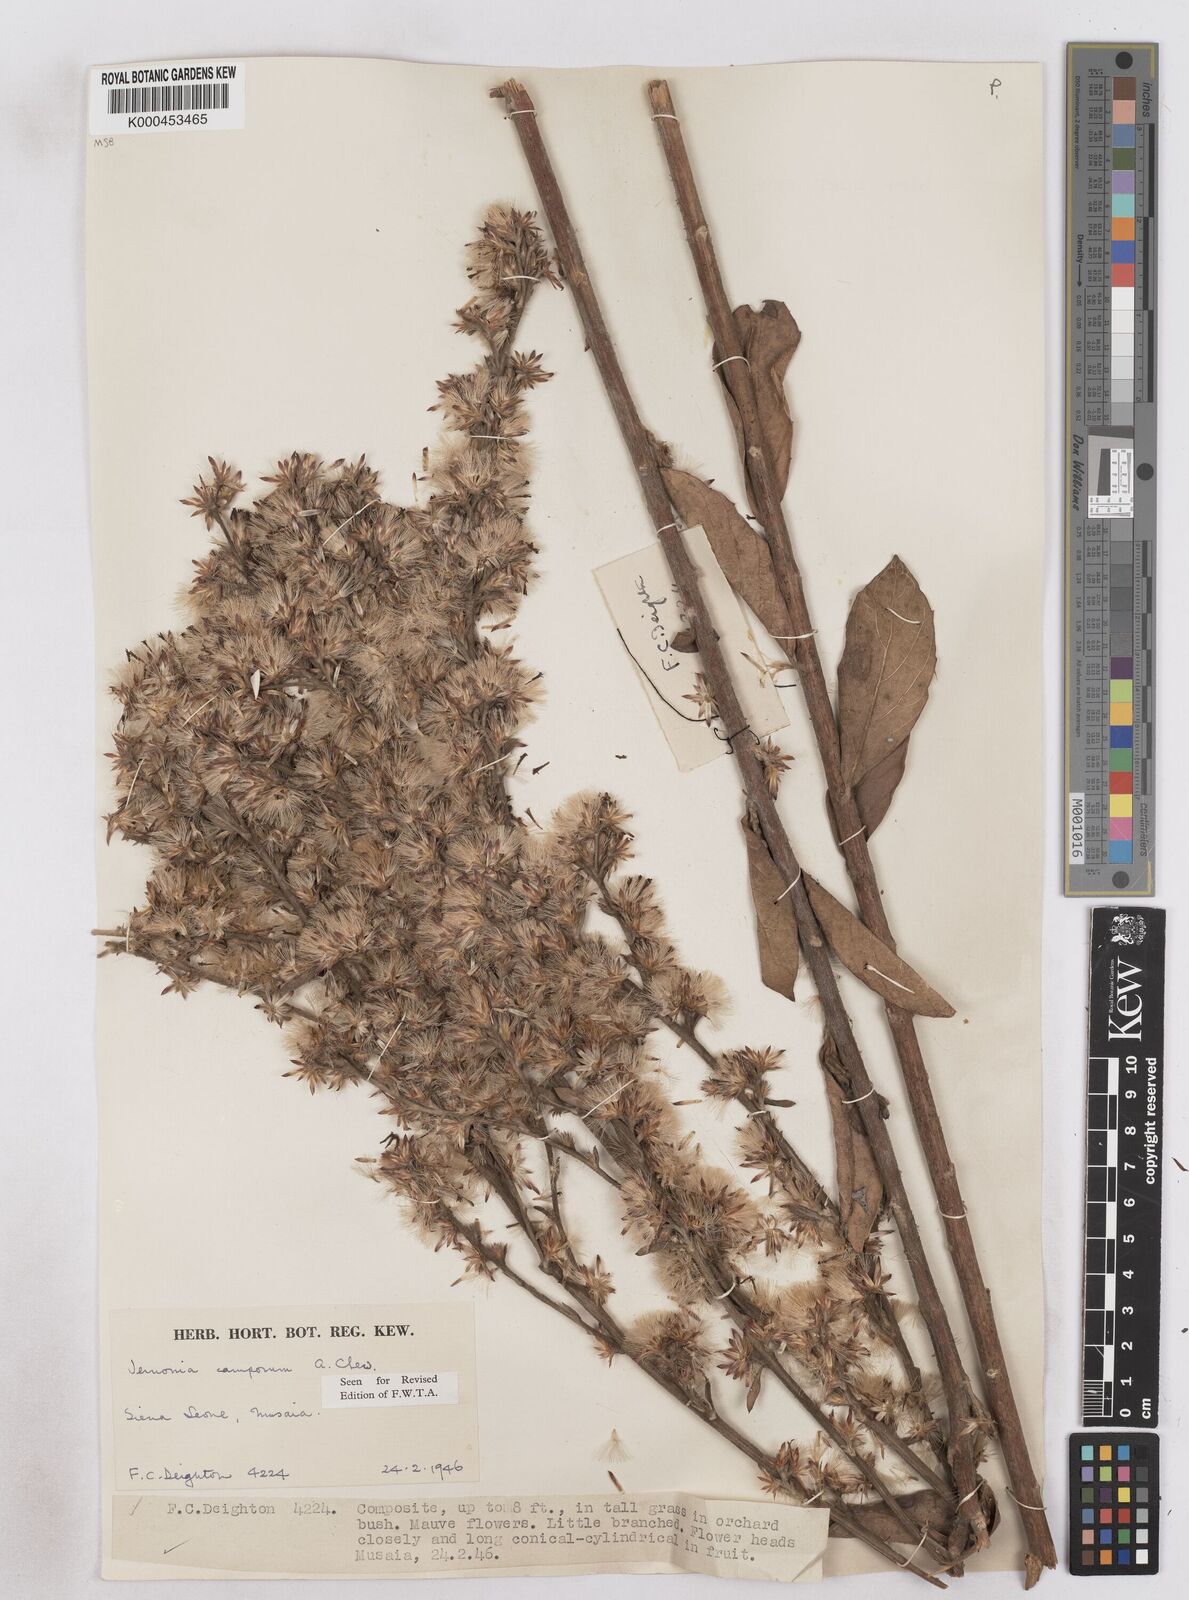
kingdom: Plantae
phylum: Tracheophyta
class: Magnoliopsida
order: Asterales
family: Asteraceae
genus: Vernoniastrum
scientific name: Vernoniastrum camporum
